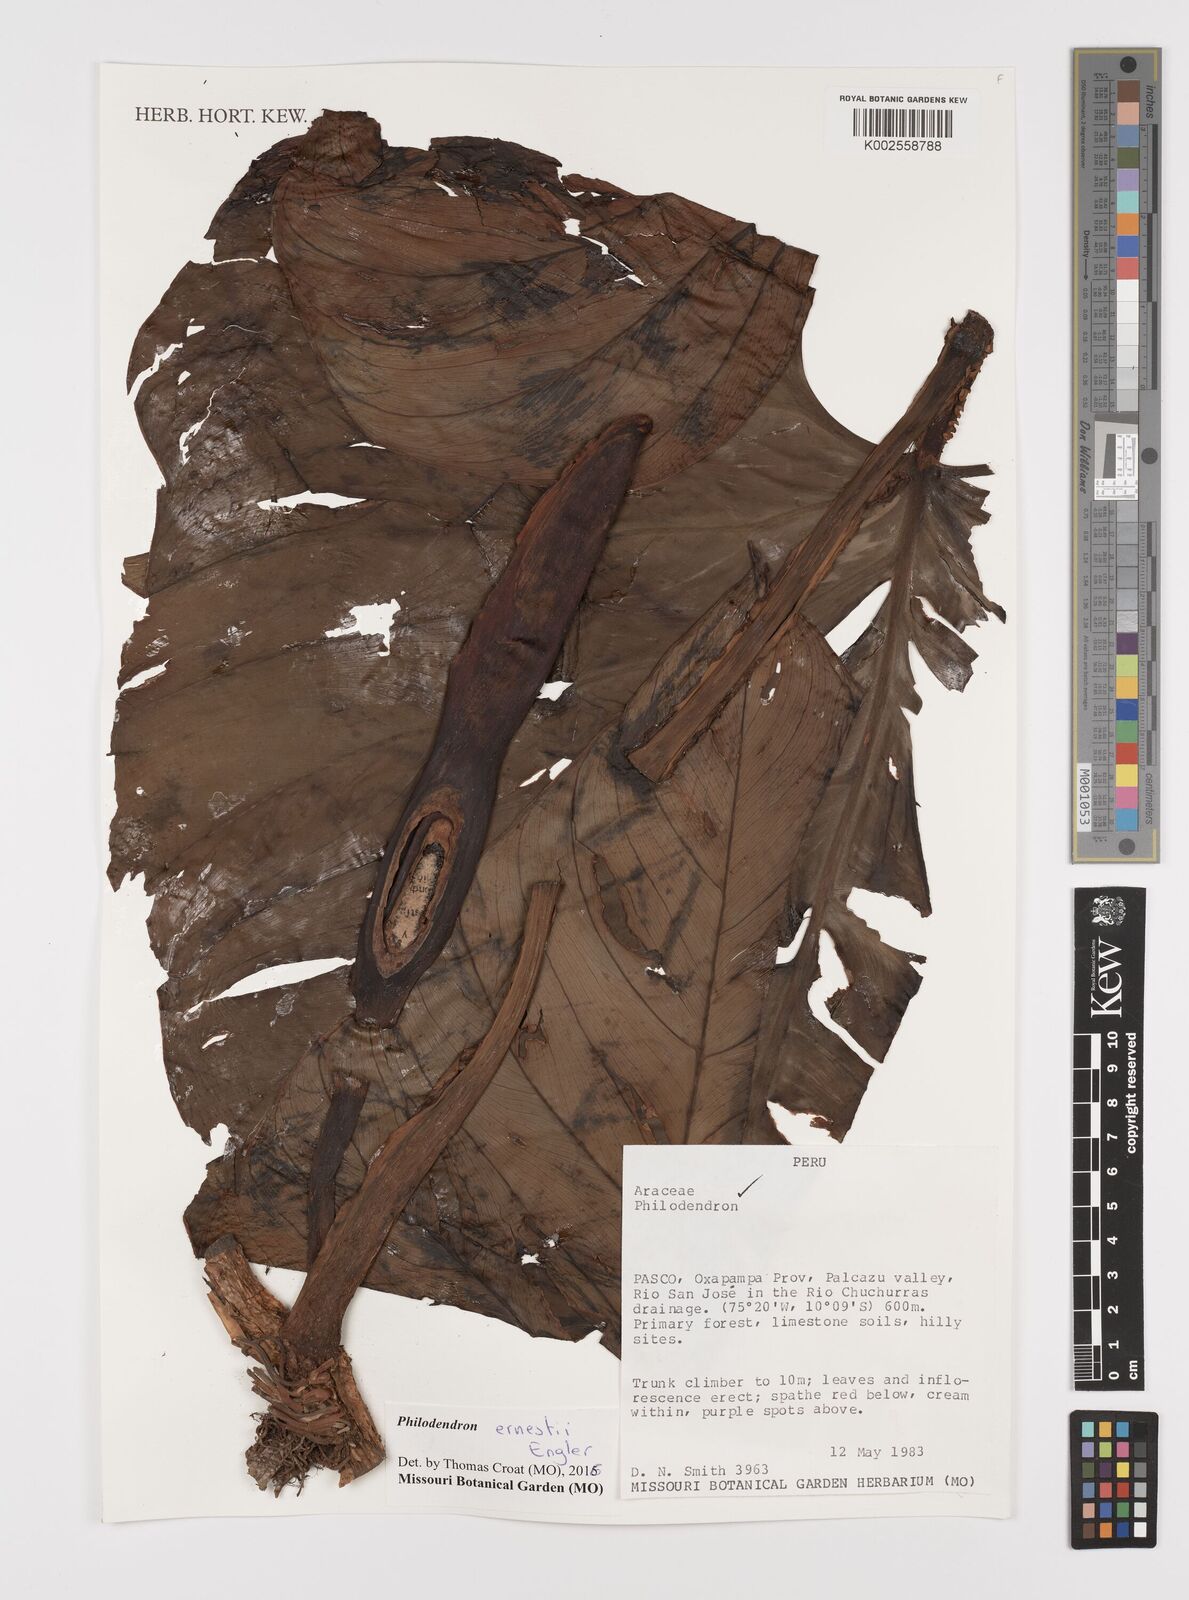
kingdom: Plantae
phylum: Tracheophyta
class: Liliopsida
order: Alismatales
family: Araceae
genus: Philodendron
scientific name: Philodendron ernestii
